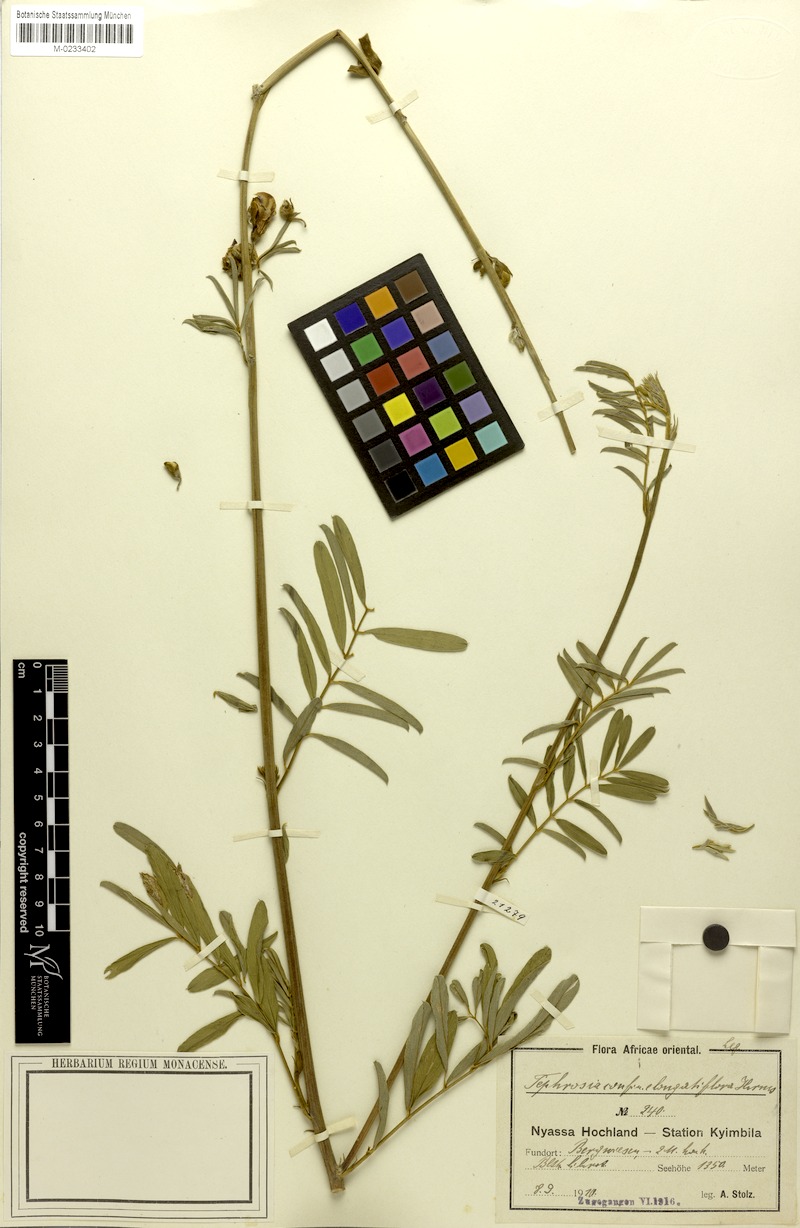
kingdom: Plantae
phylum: Tracheophyta
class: Magnoliopsida
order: Fabales
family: Fabaceae
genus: Tephrosia
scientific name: Tephrosia interrupta
